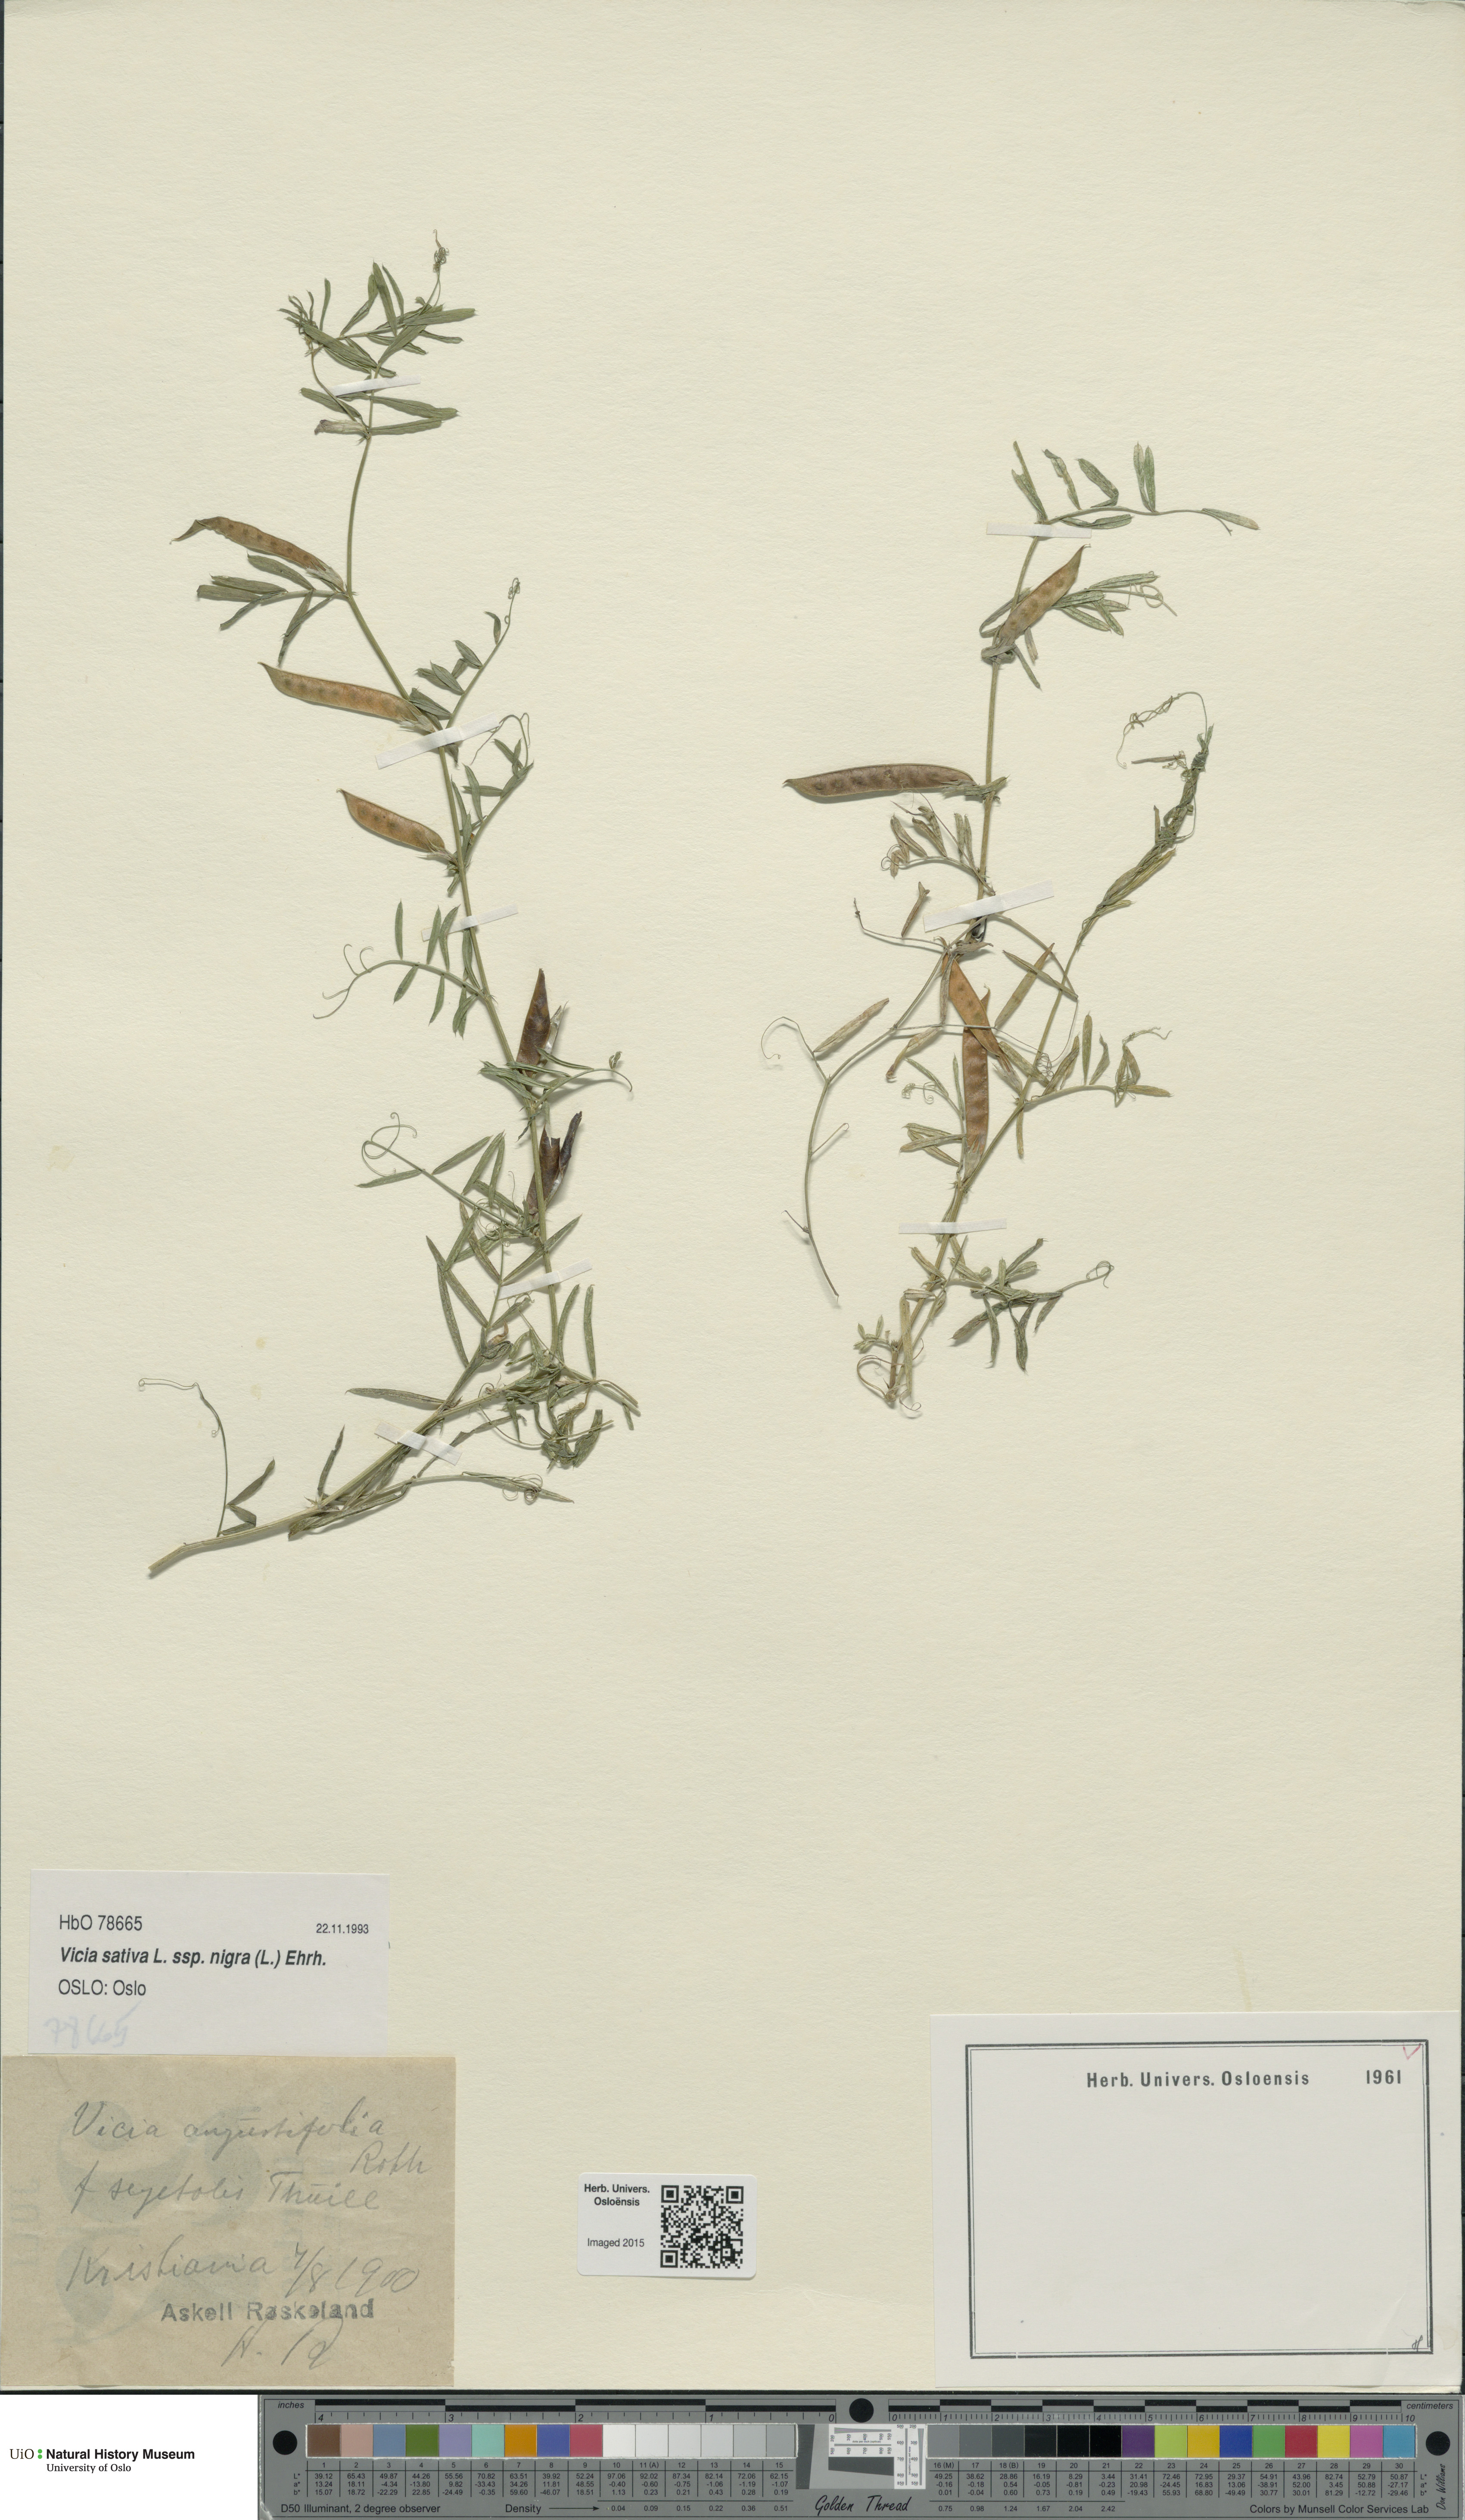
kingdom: Plantae
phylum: Tracheophyta
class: Magnoliopsida
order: Fabales
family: Fabaceae
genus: Vicia
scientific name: Vicia sativa
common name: Garden vetch
